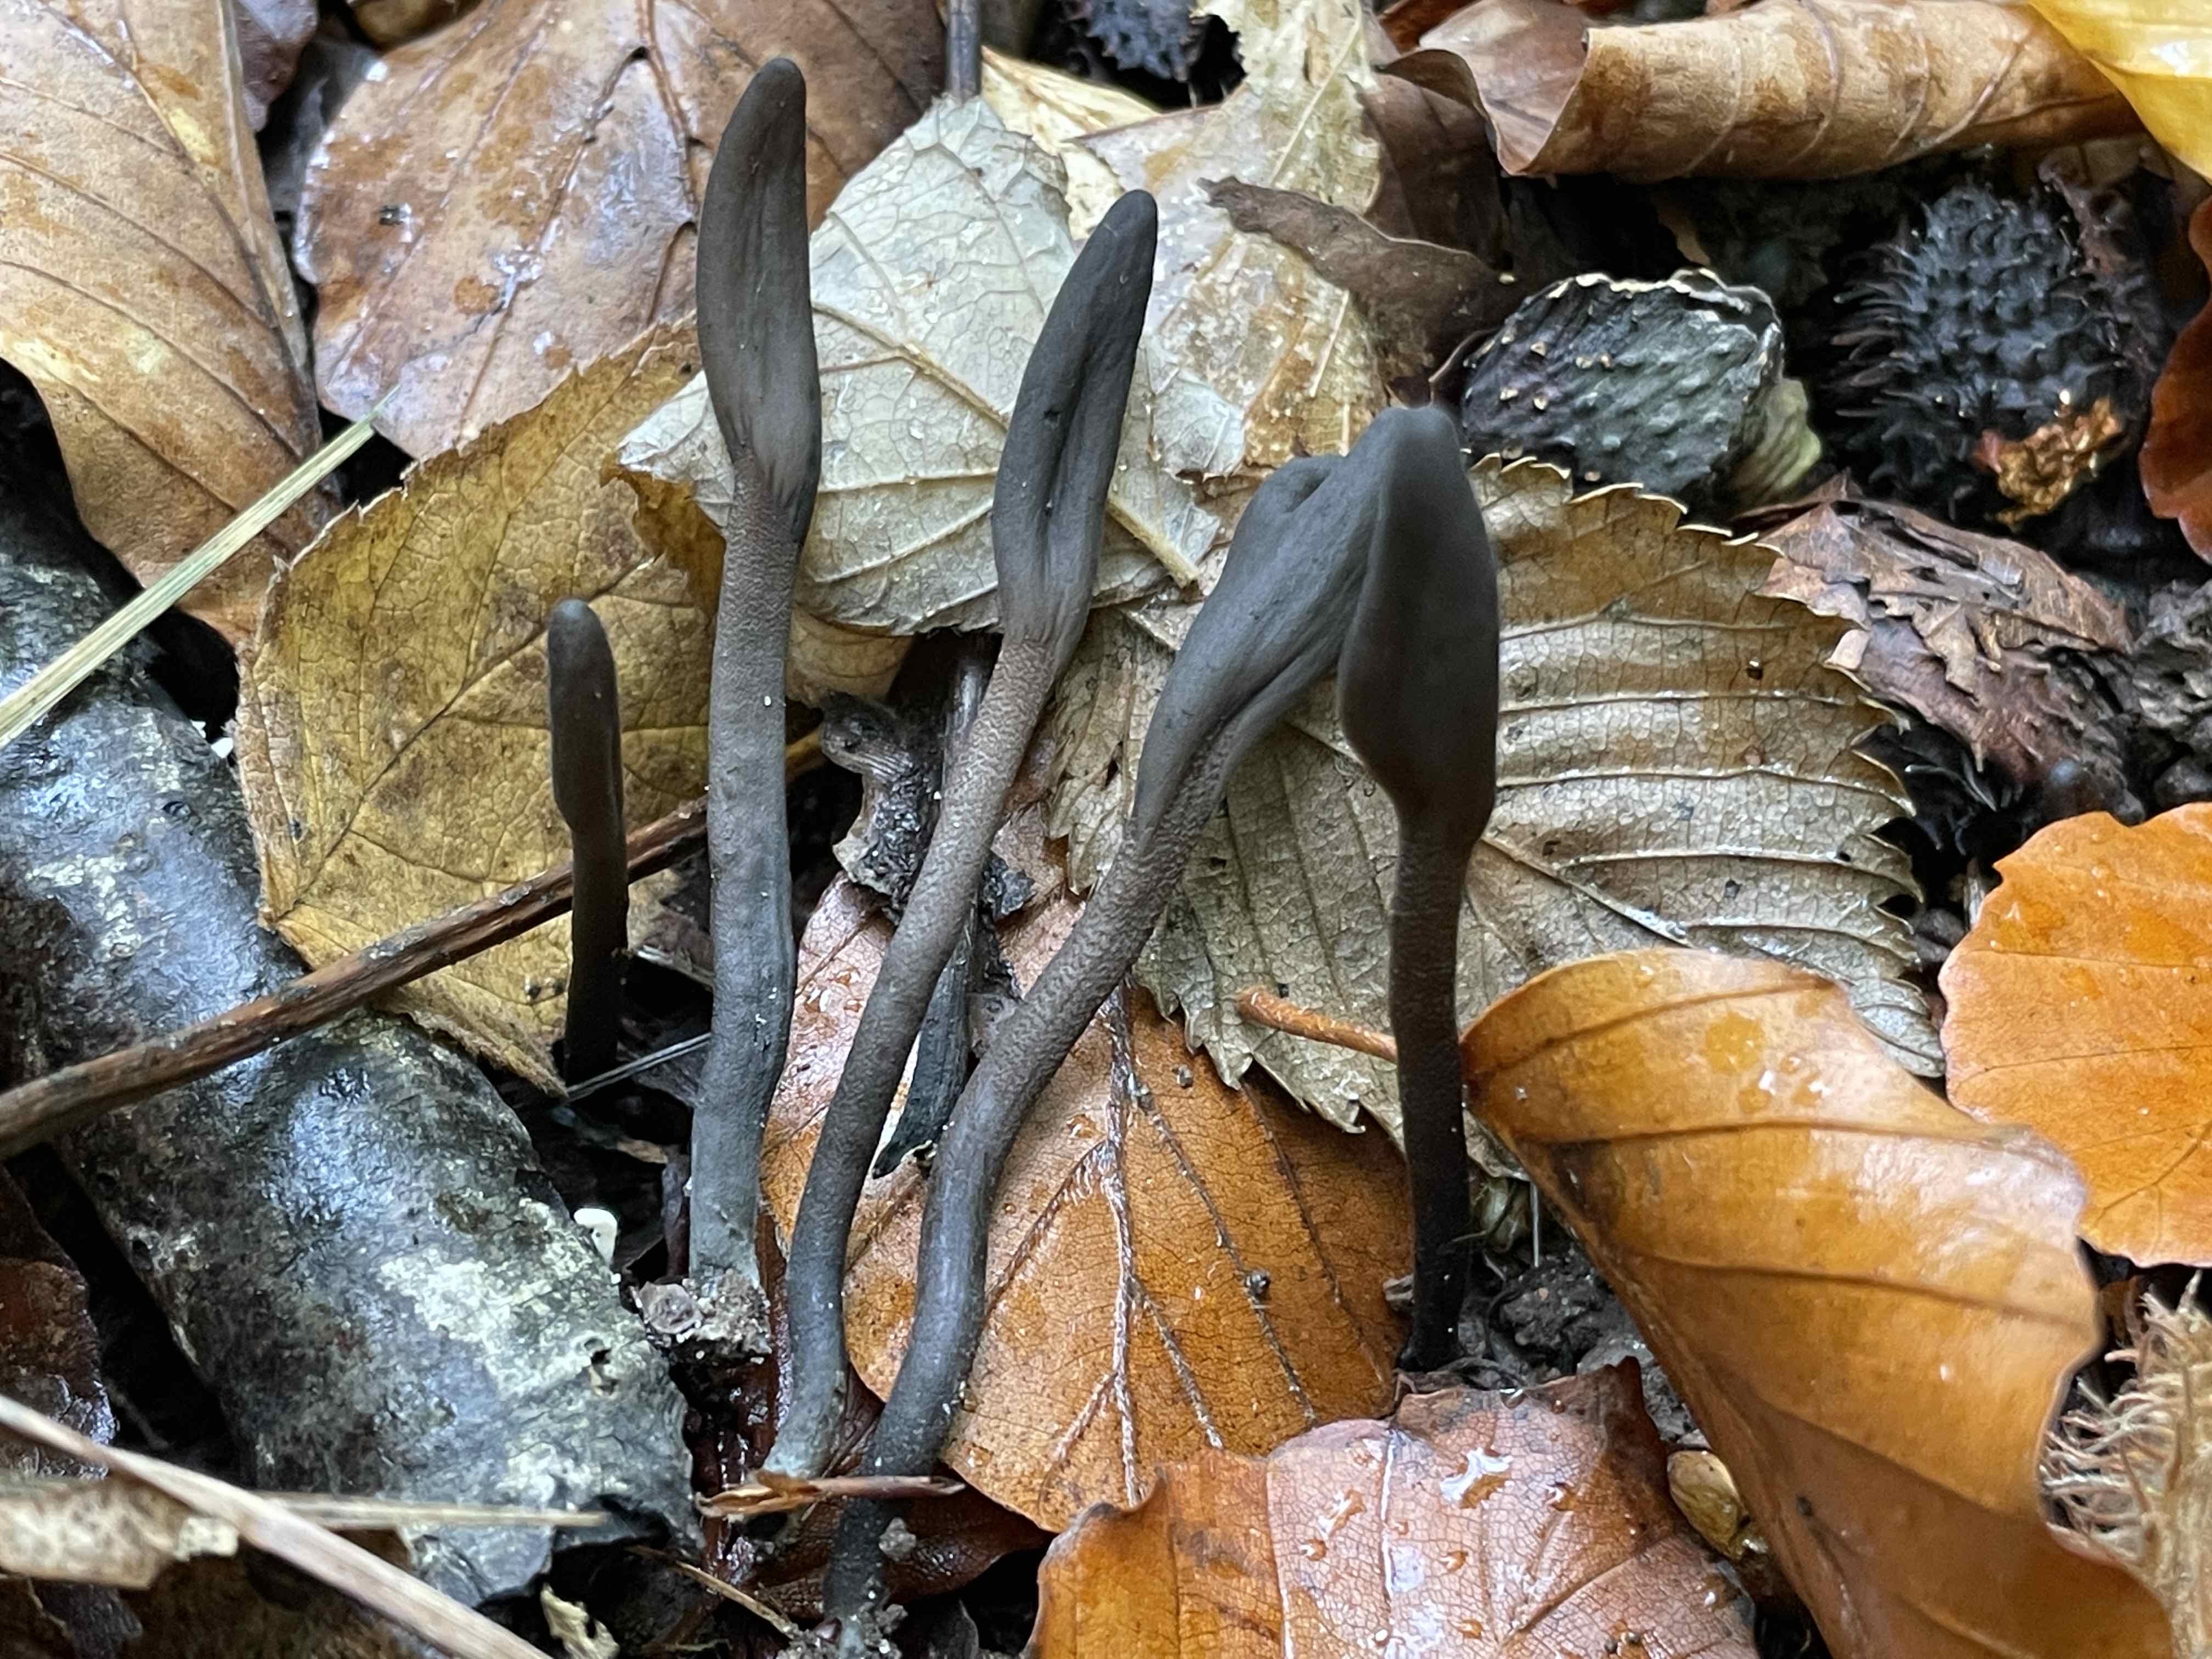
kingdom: Fungi
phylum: Ascomycota
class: Geoglossomycetes
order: Geoglossales
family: Geoglossaceae
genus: Geoglossum
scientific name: Geoglossum
